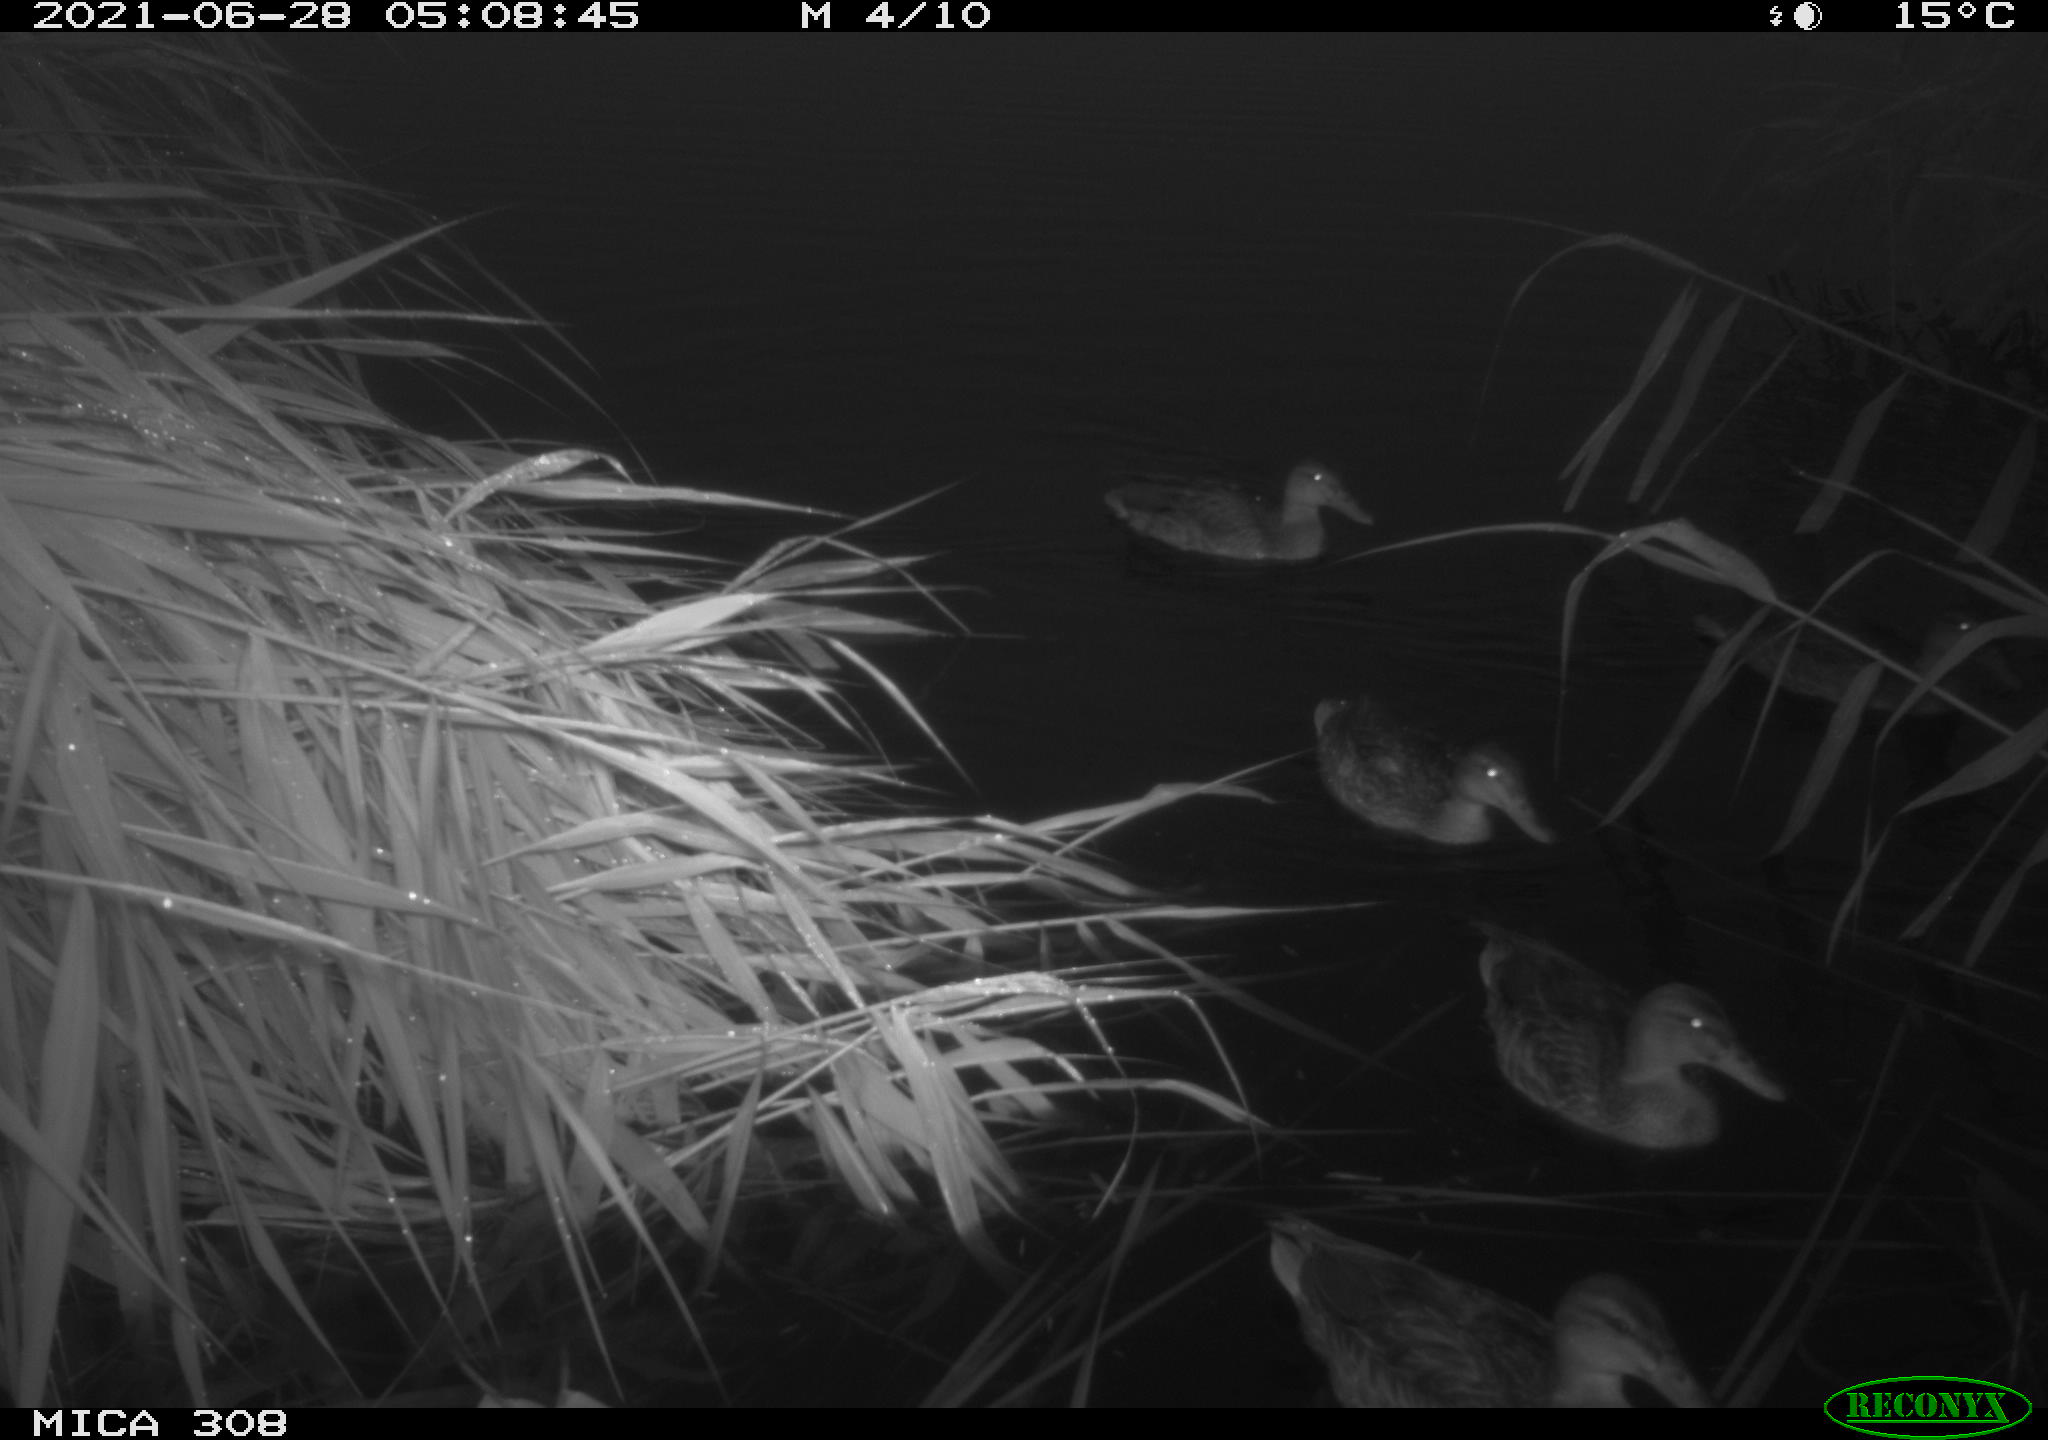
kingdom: Animalia
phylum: Chordata
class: Aves
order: Anseriformes
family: Anatidae
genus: Anas
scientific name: Anas platyrhynchos
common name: Mallard
